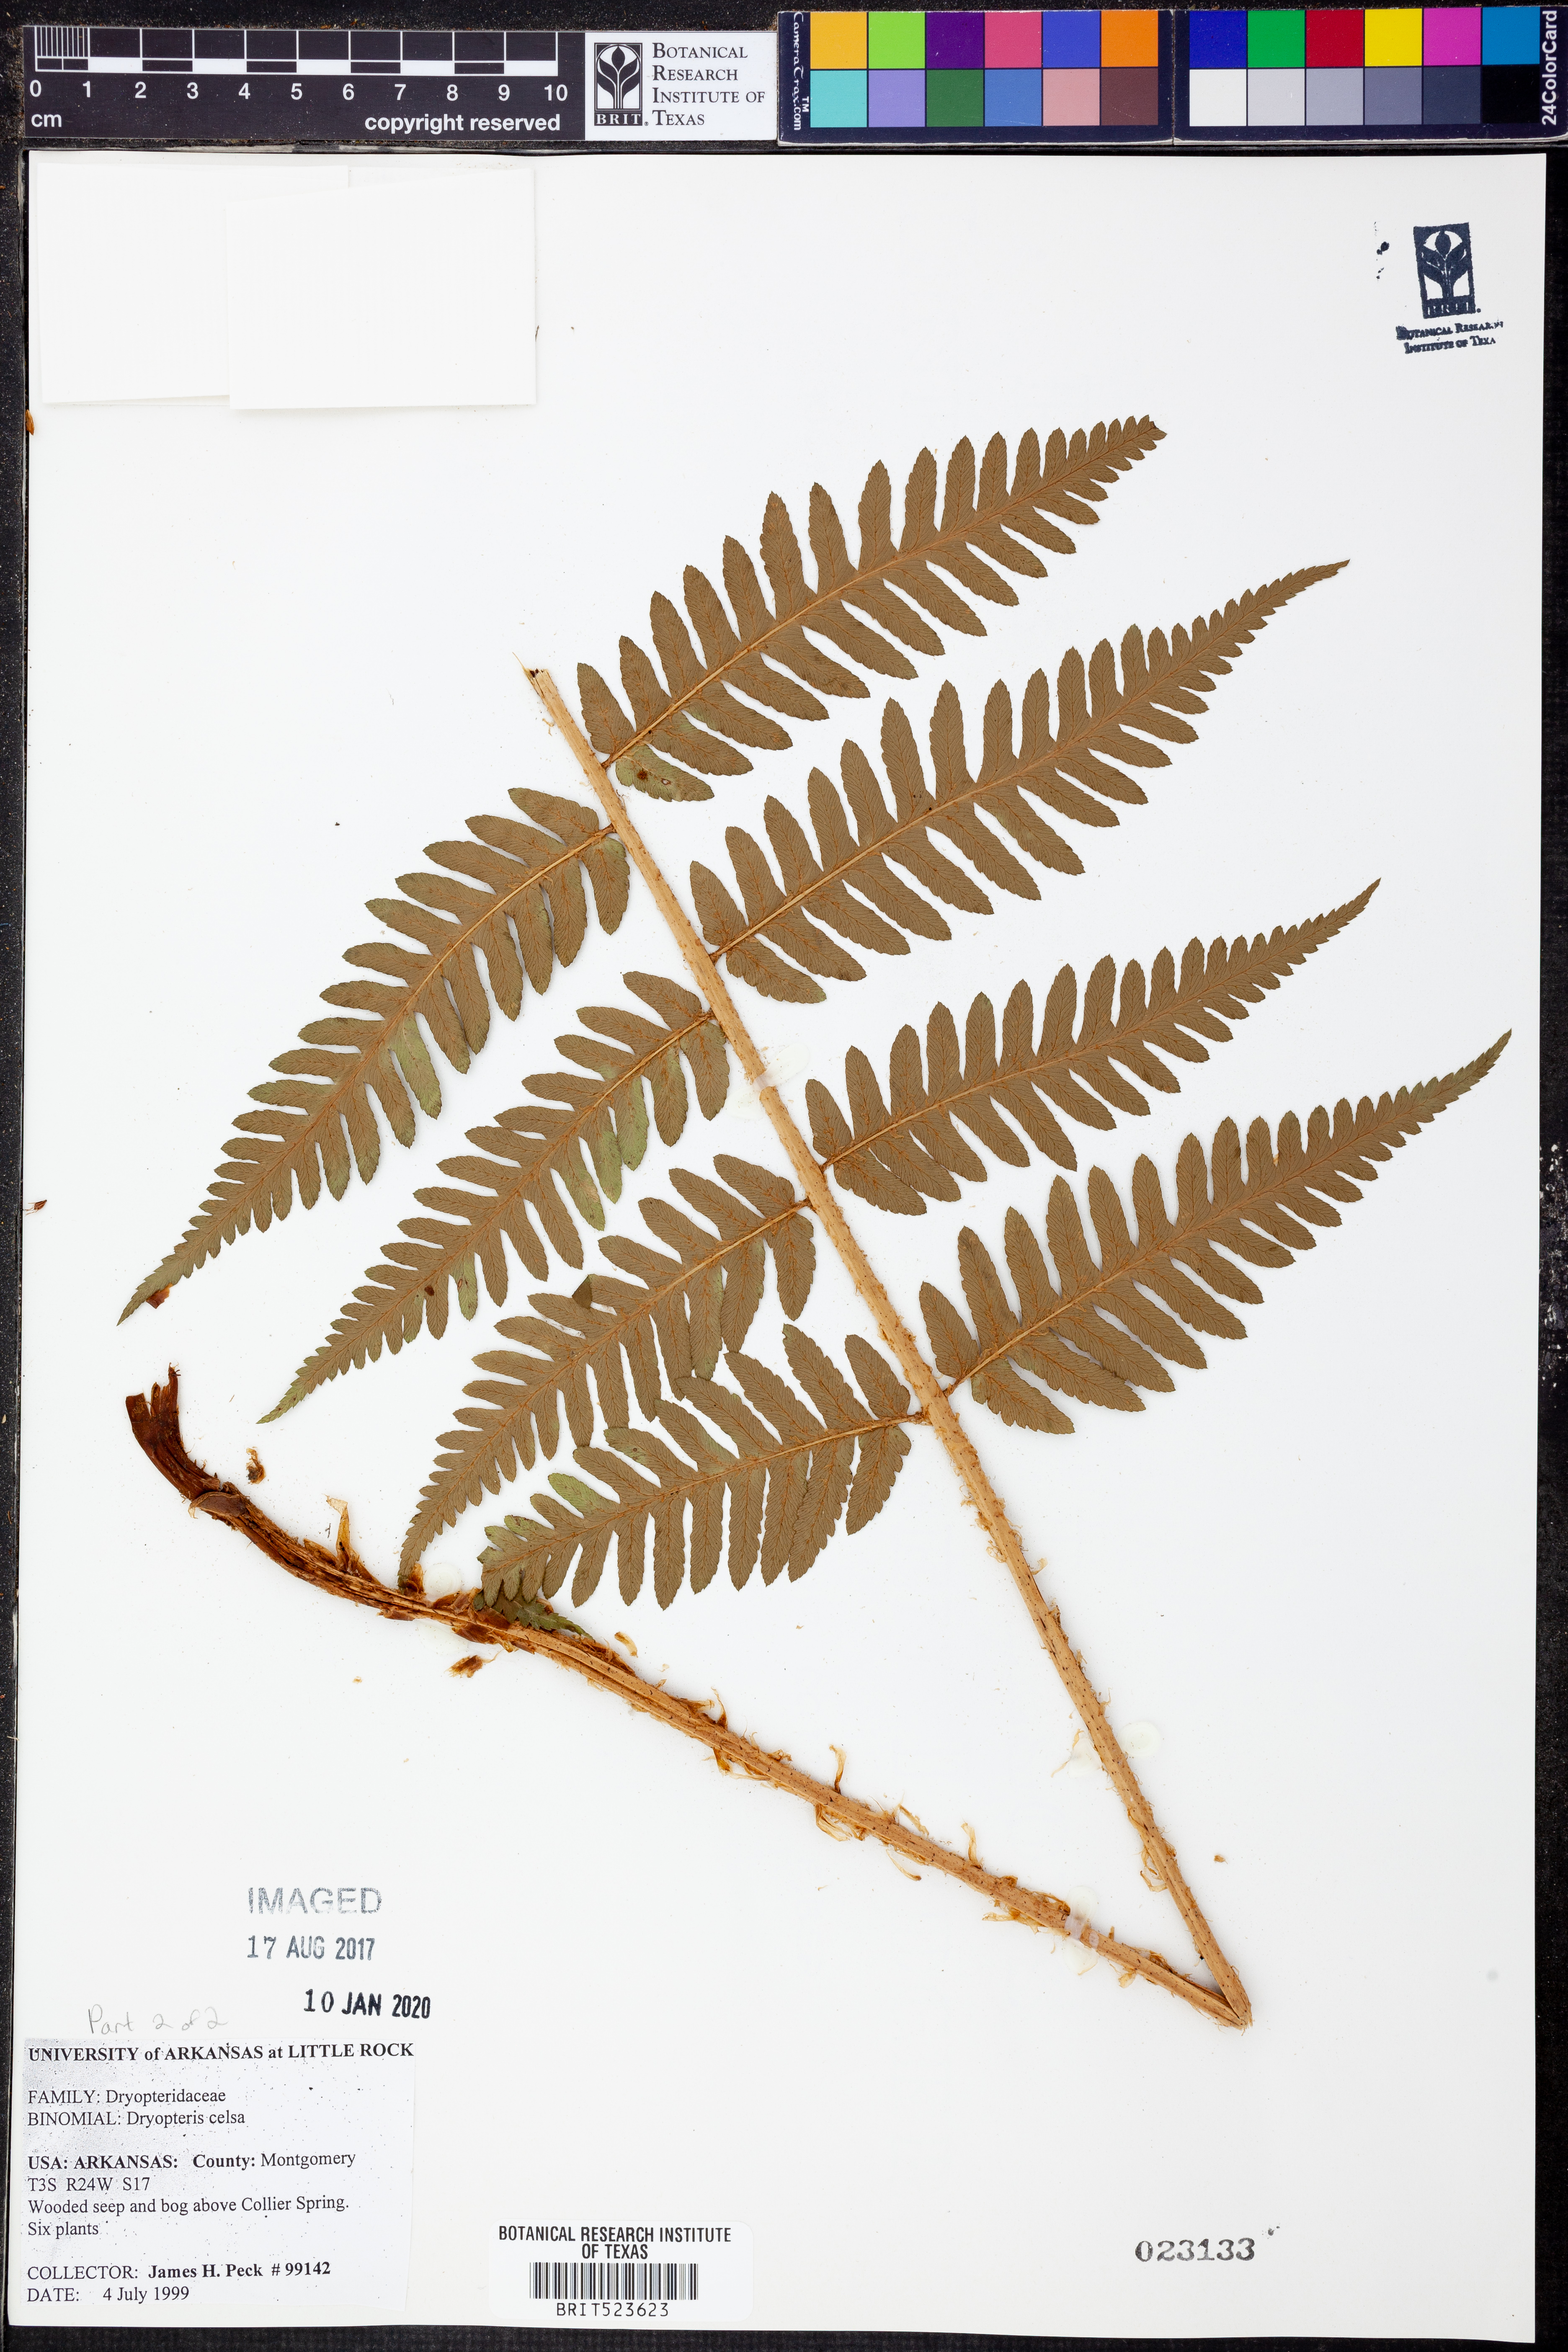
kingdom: Plantae
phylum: Tracheophyta
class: Polypodiopsida
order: Polypodiales
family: Dryopteridaceae
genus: Dryopteris
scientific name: Dryopteris celsa
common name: Log fern
